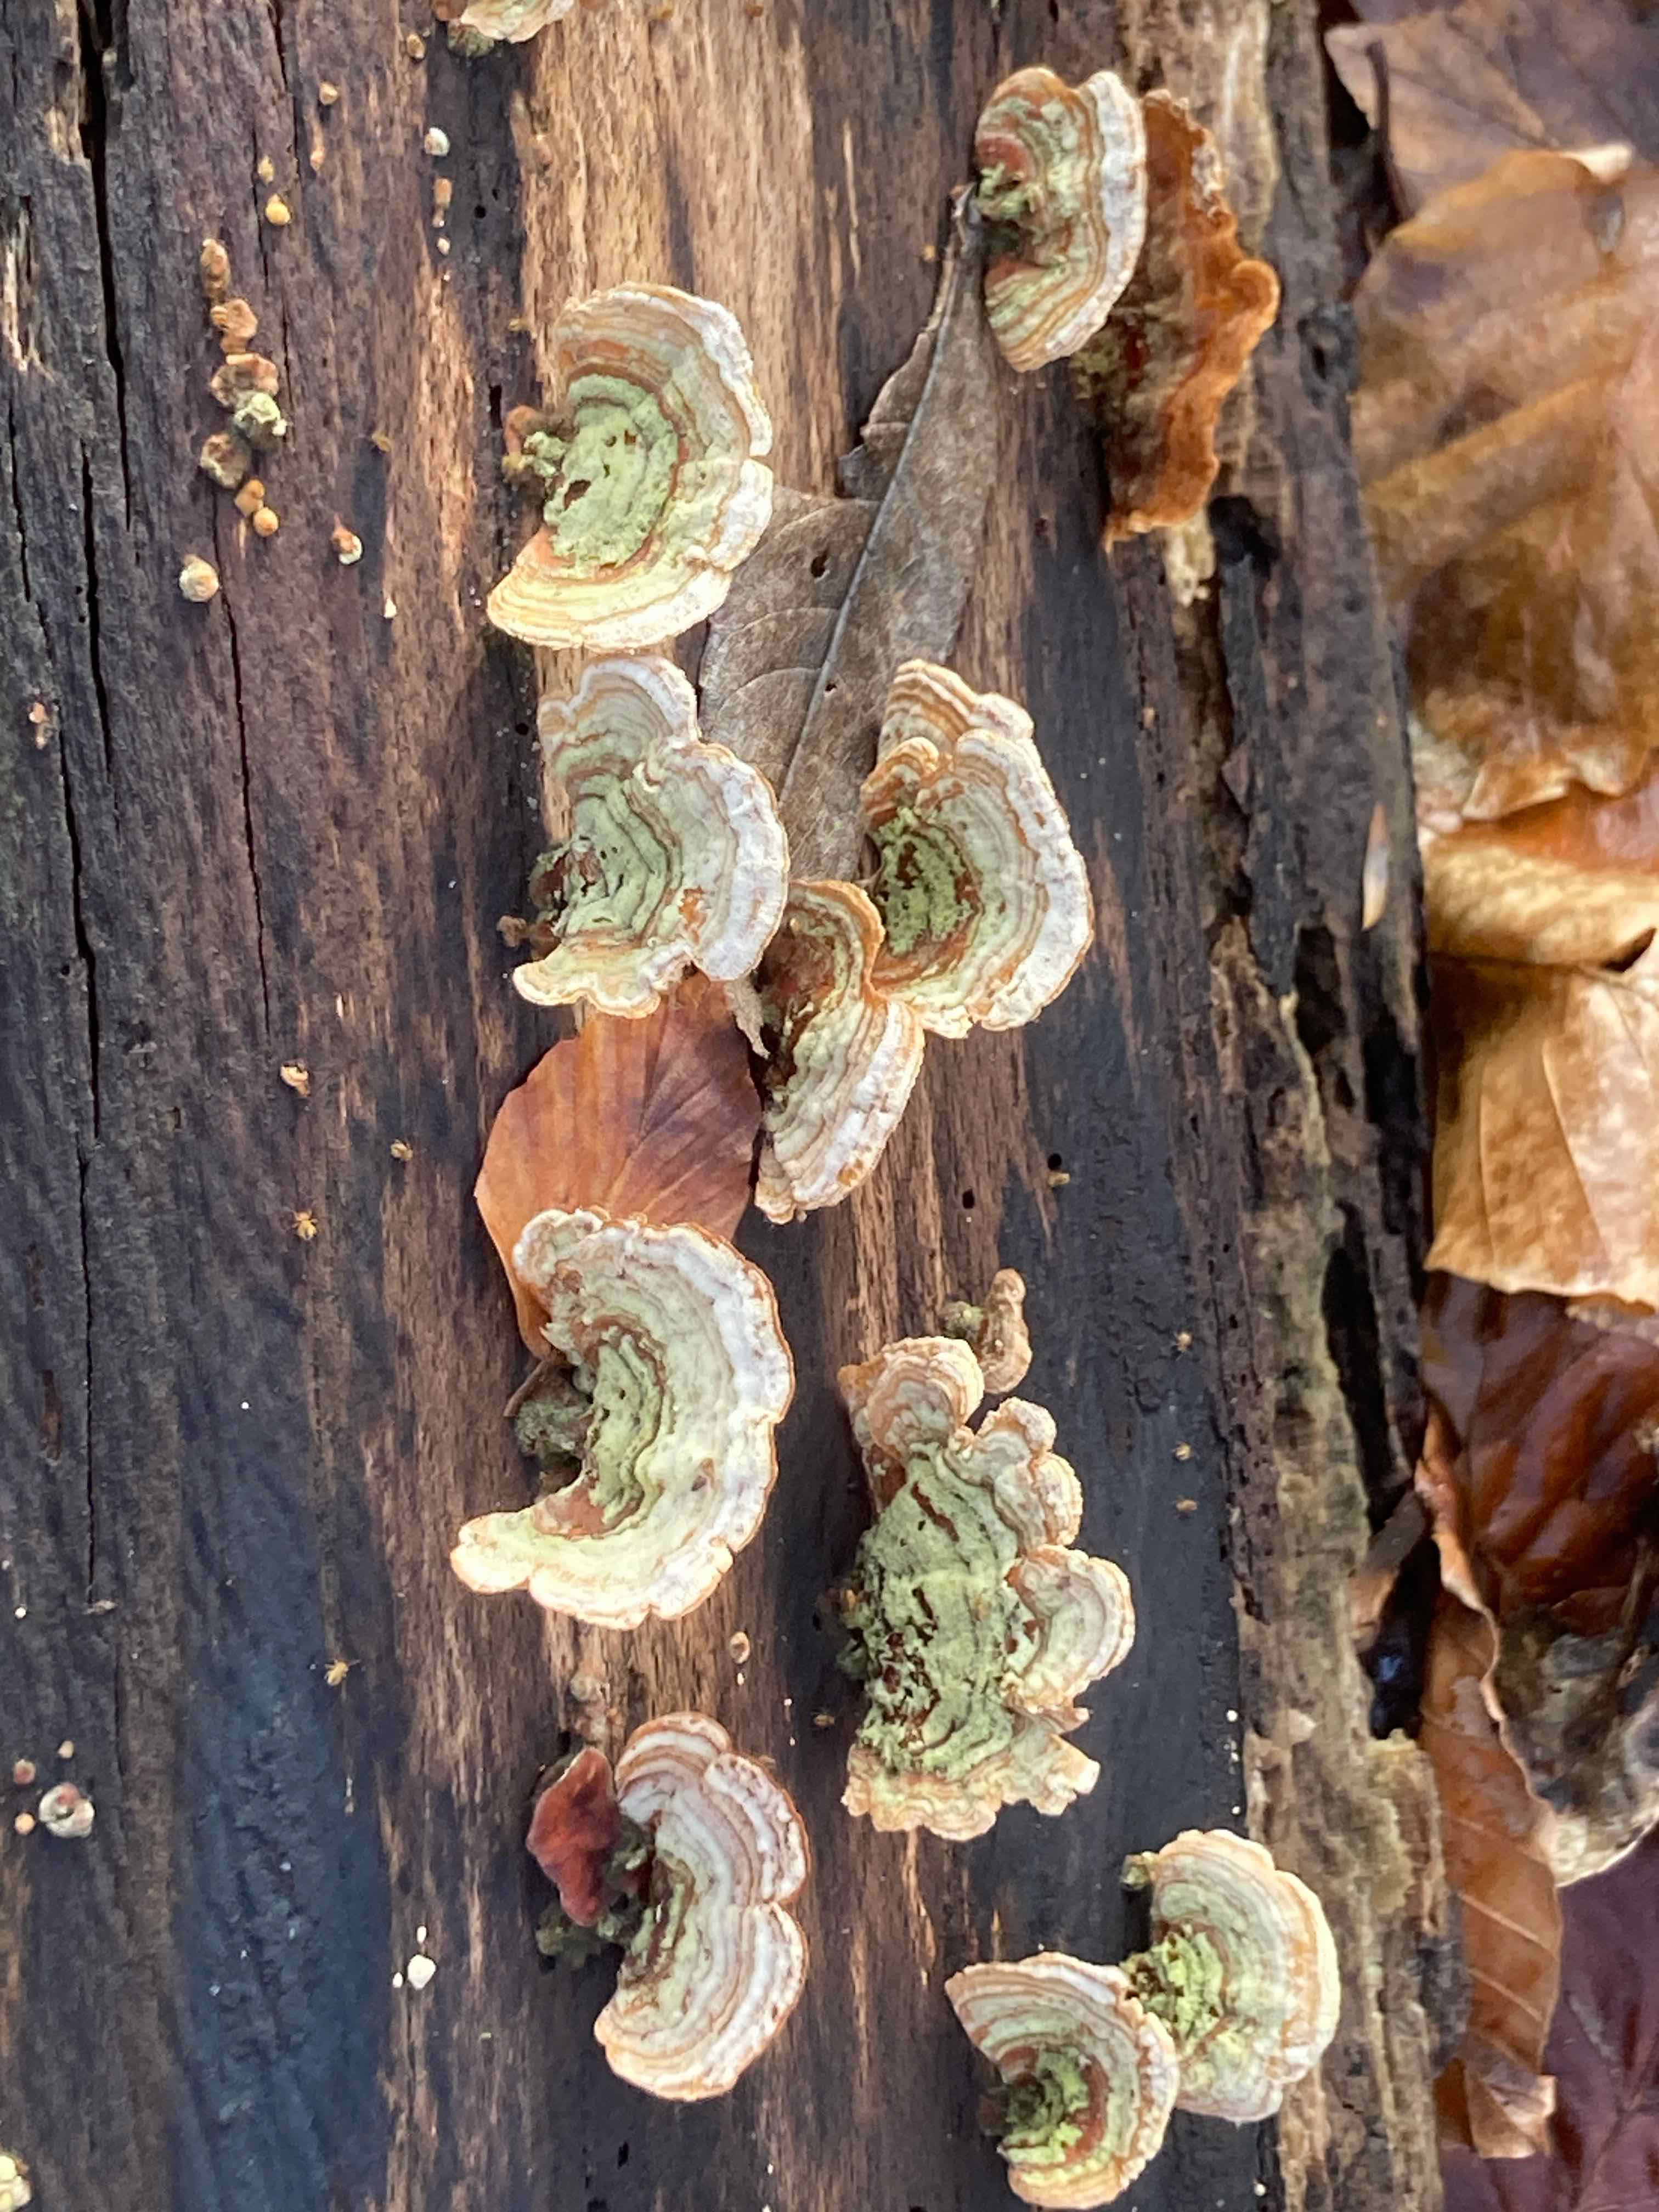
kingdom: Fungi
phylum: Basidiomycota
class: Agaricomycetes
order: Russulales
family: Stereaceae
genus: Stereum
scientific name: Stereum subtomentosum
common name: smuk lædersvamp
